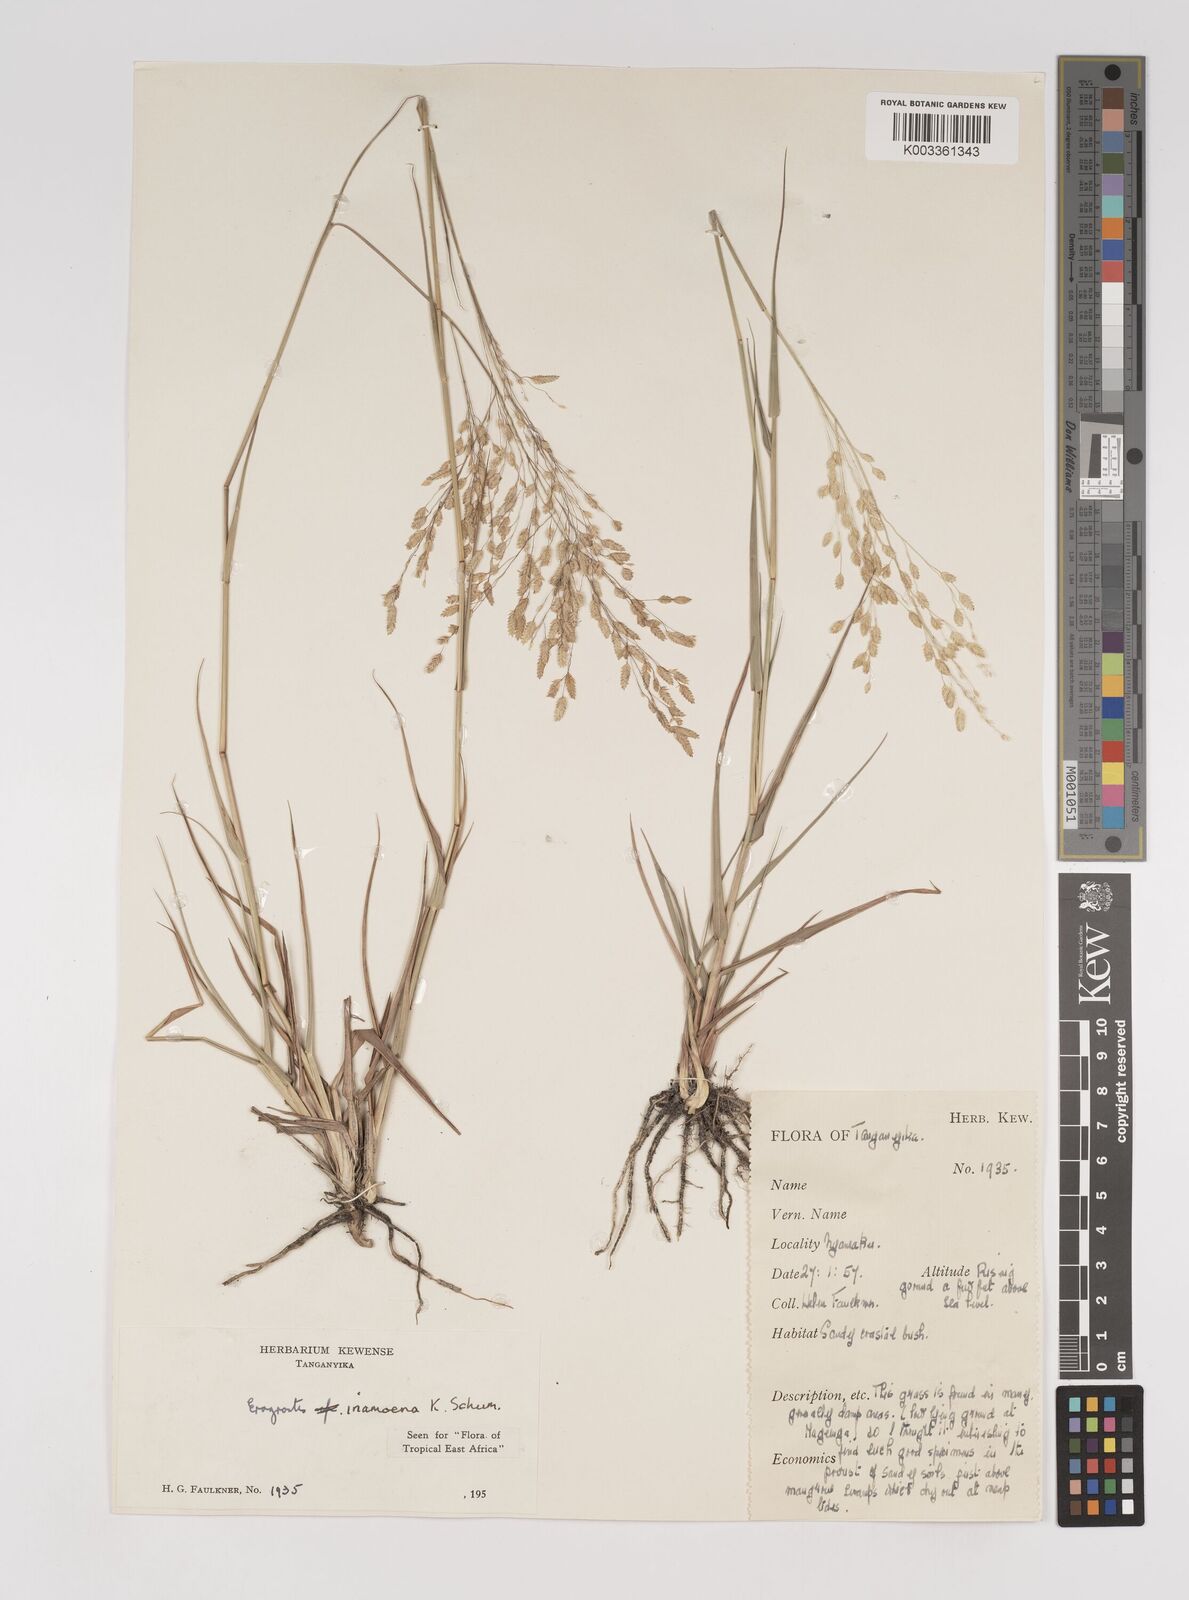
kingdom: Plantae
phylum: Tracheophyta
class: Liliopsida
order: Poales
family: Poaceae
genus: Eragrostis
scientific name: Eragrostis inamoena
